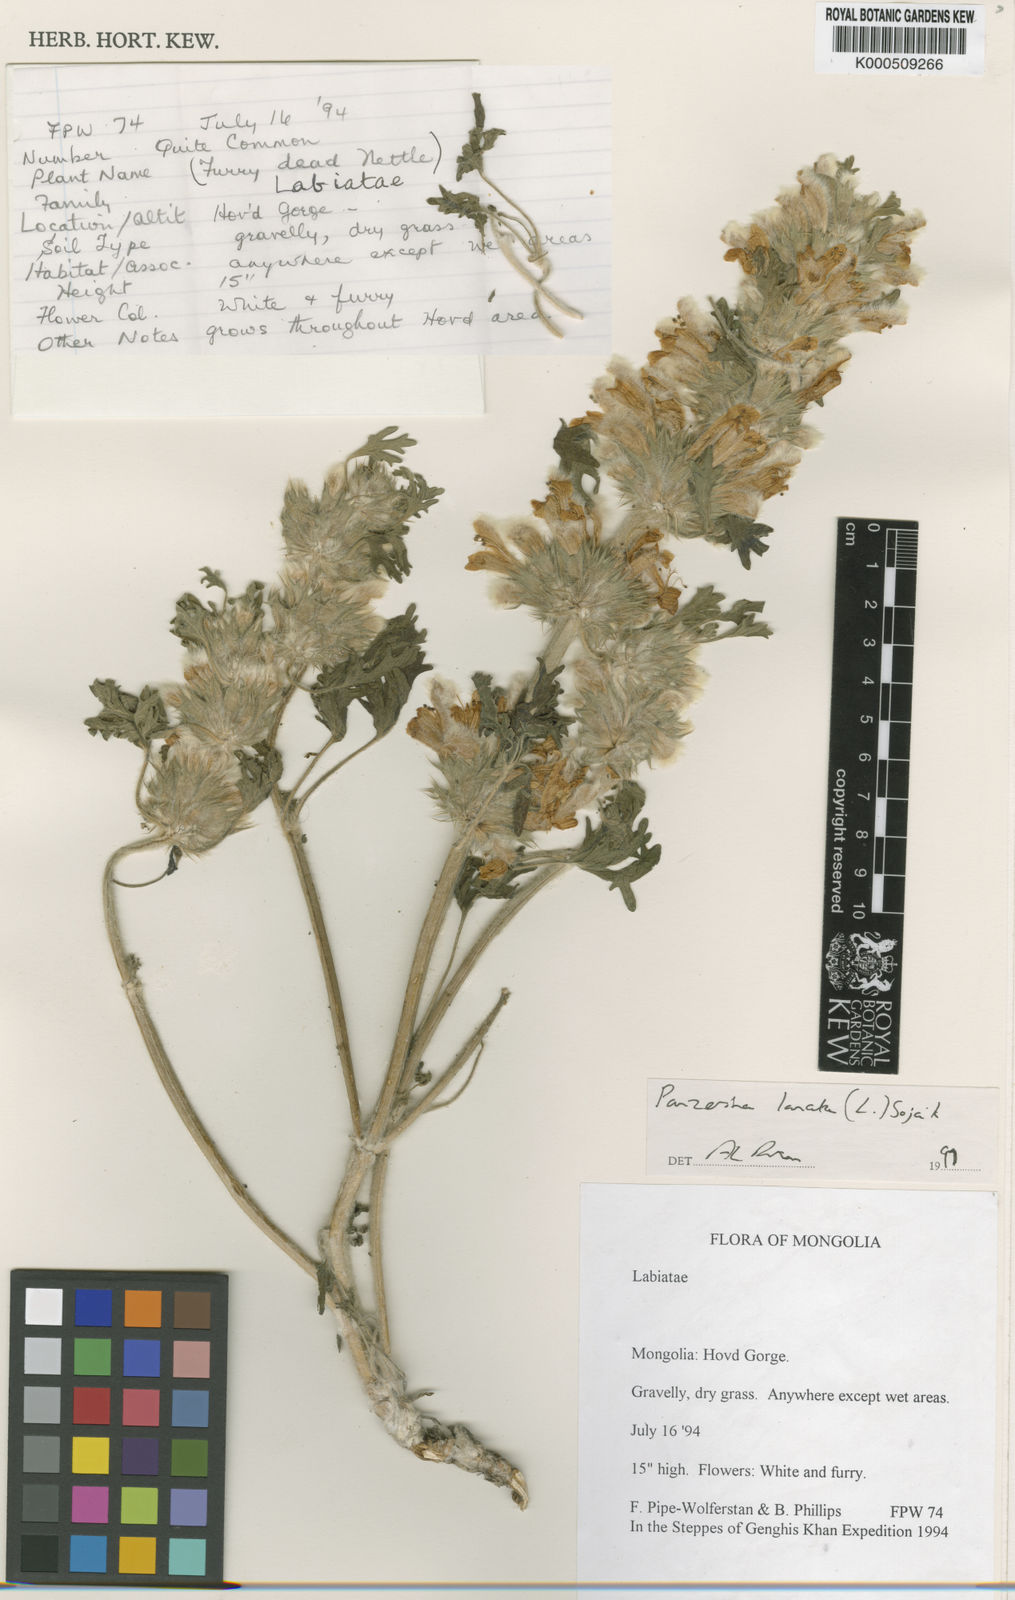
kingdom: Plantae
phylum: Tracheophyta
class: Magnoliopsida
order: Lamiales
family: Lamiaceae
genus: Panzerina
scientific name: Panzerina
